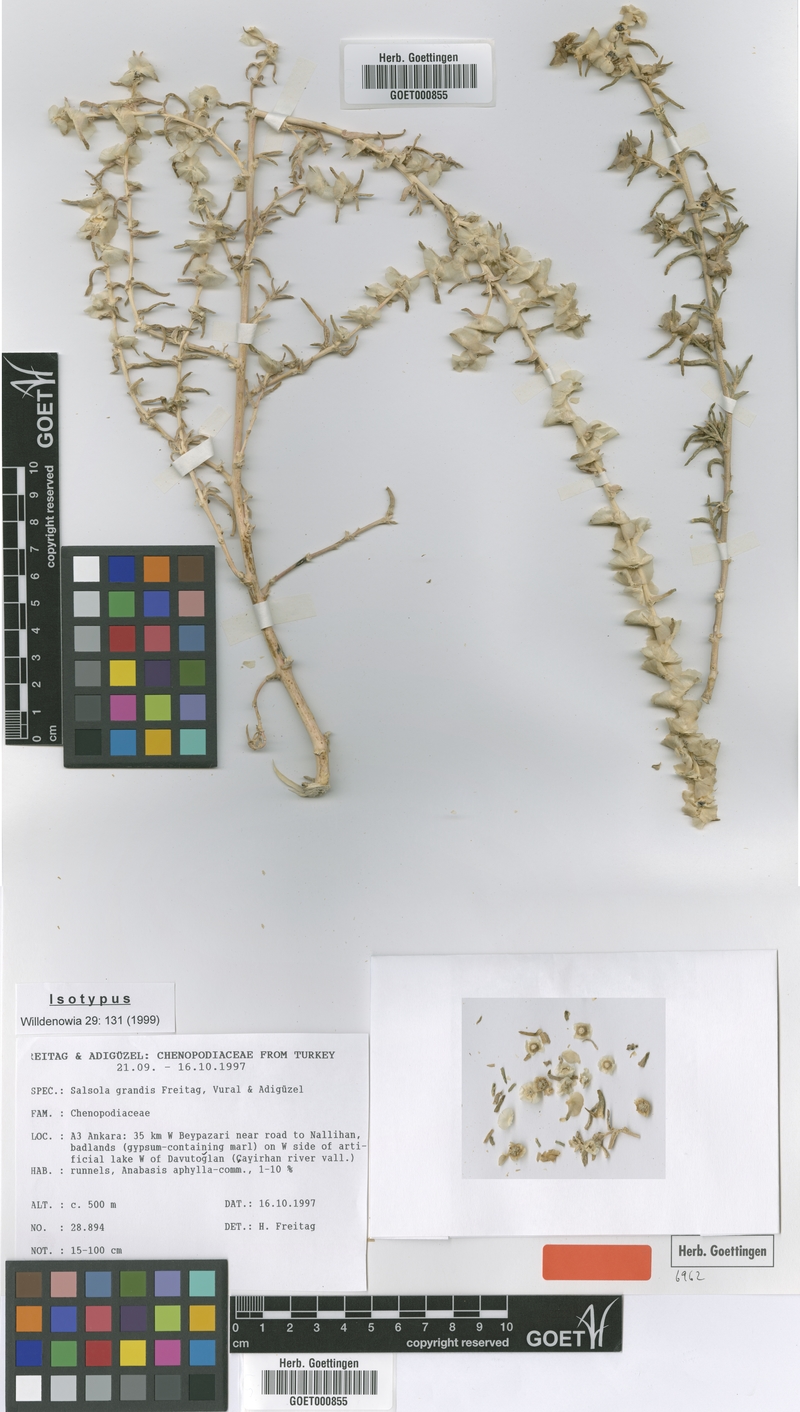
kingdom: Plantae
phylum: Tracheophyta
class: Magnoliopsida
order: Caryophyllales
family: Amaranthaceae
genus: Soda
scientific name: Soda grandis
